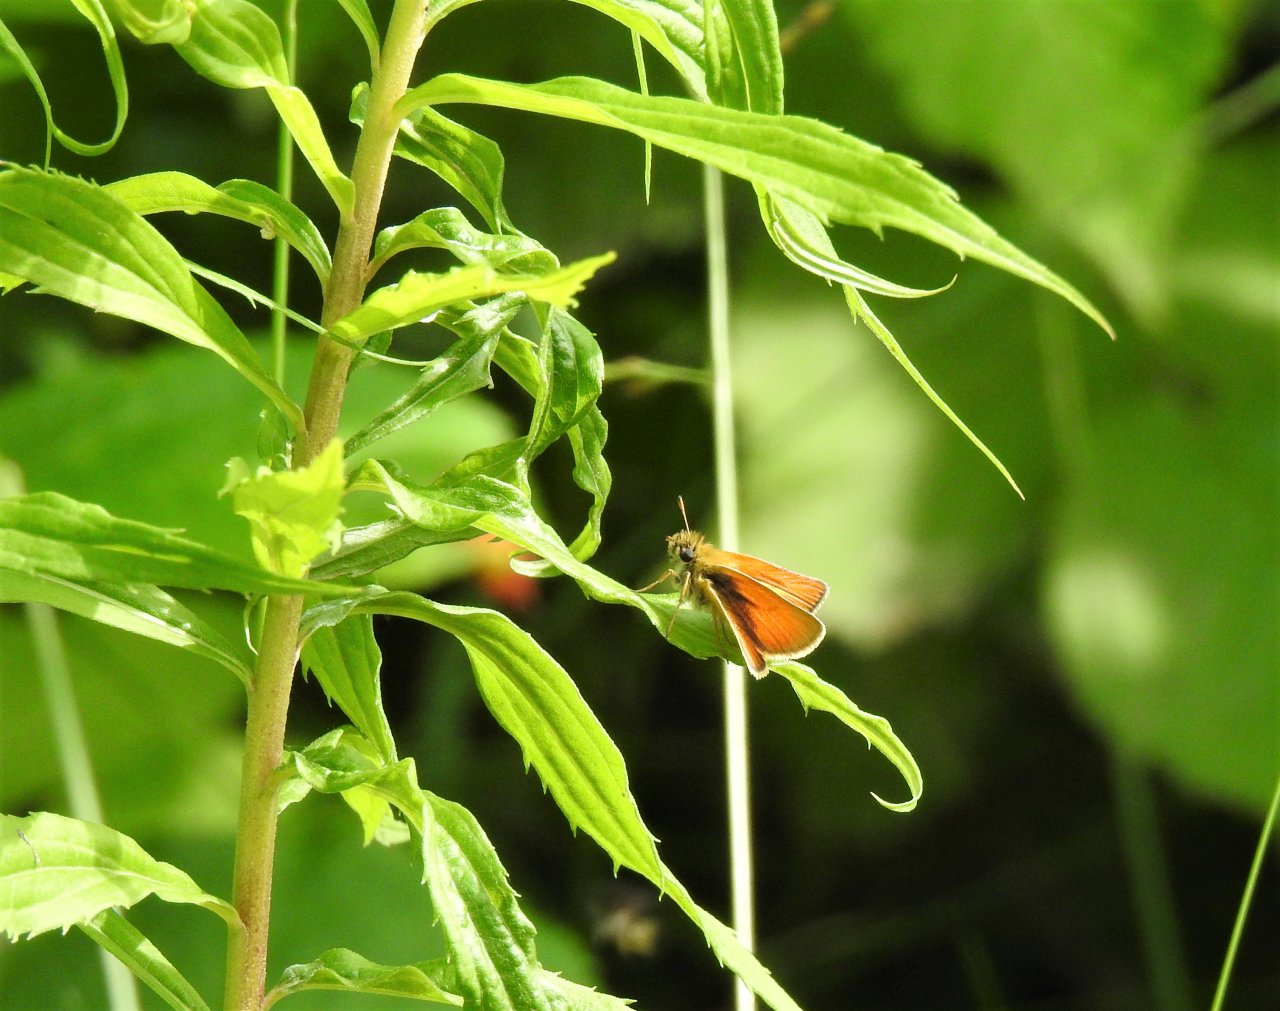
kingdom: Animalia
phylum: Arthropoda
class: Insecta
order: Lepidoptera
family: Hesperiidae
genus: Thymelicus
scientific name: Thymelicus lineola
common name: European Skipper
